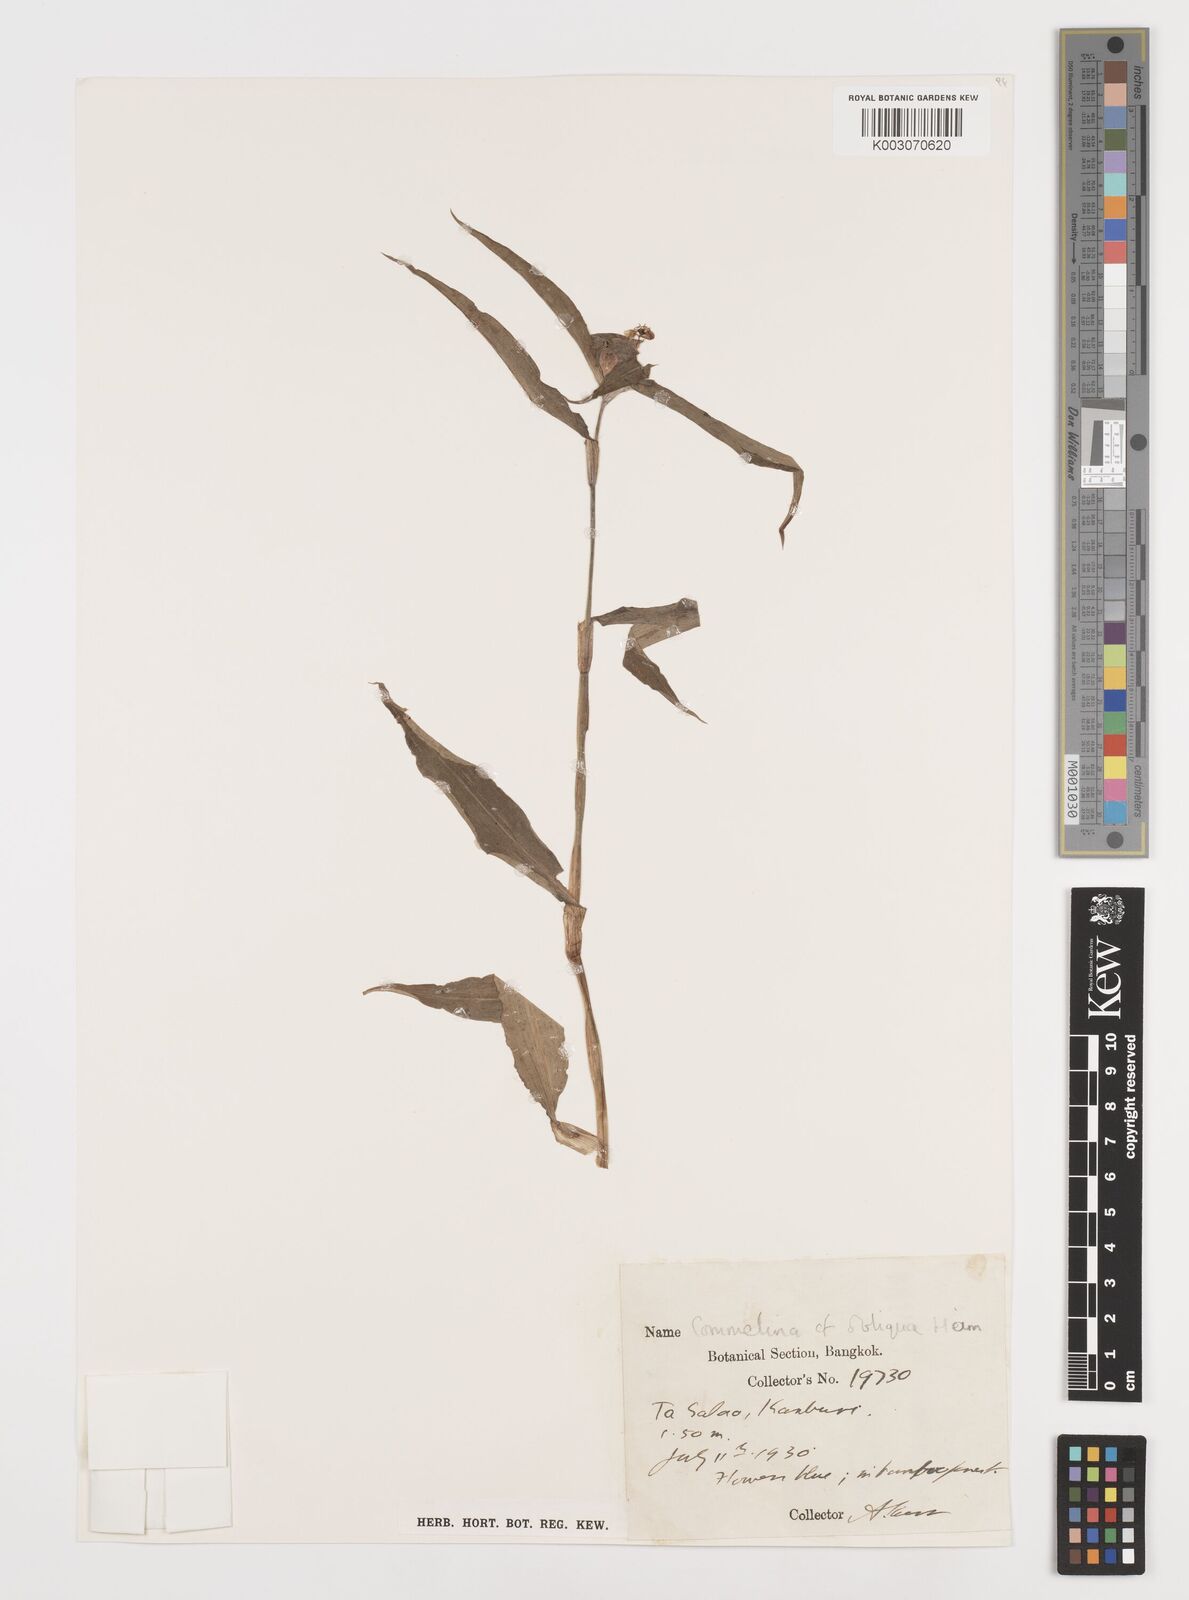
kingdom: Plantae
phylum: Tracheophyta
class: Liliopsida
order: Commelinales
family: Commelinaceae
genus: Commelina
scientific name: Commelina obliqua
